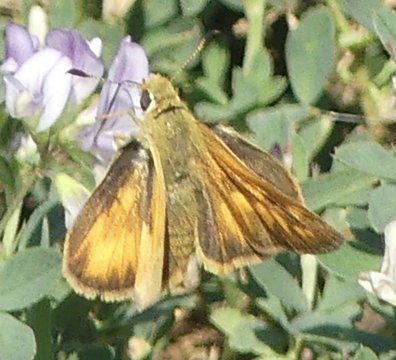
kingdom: Animalia
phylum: Arthropoda
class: Insecta
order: Lepidoptera
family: Hesperiidae
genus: Ochlodes
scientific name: Ochlodes sylvanoides
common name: Woodland Skipper
